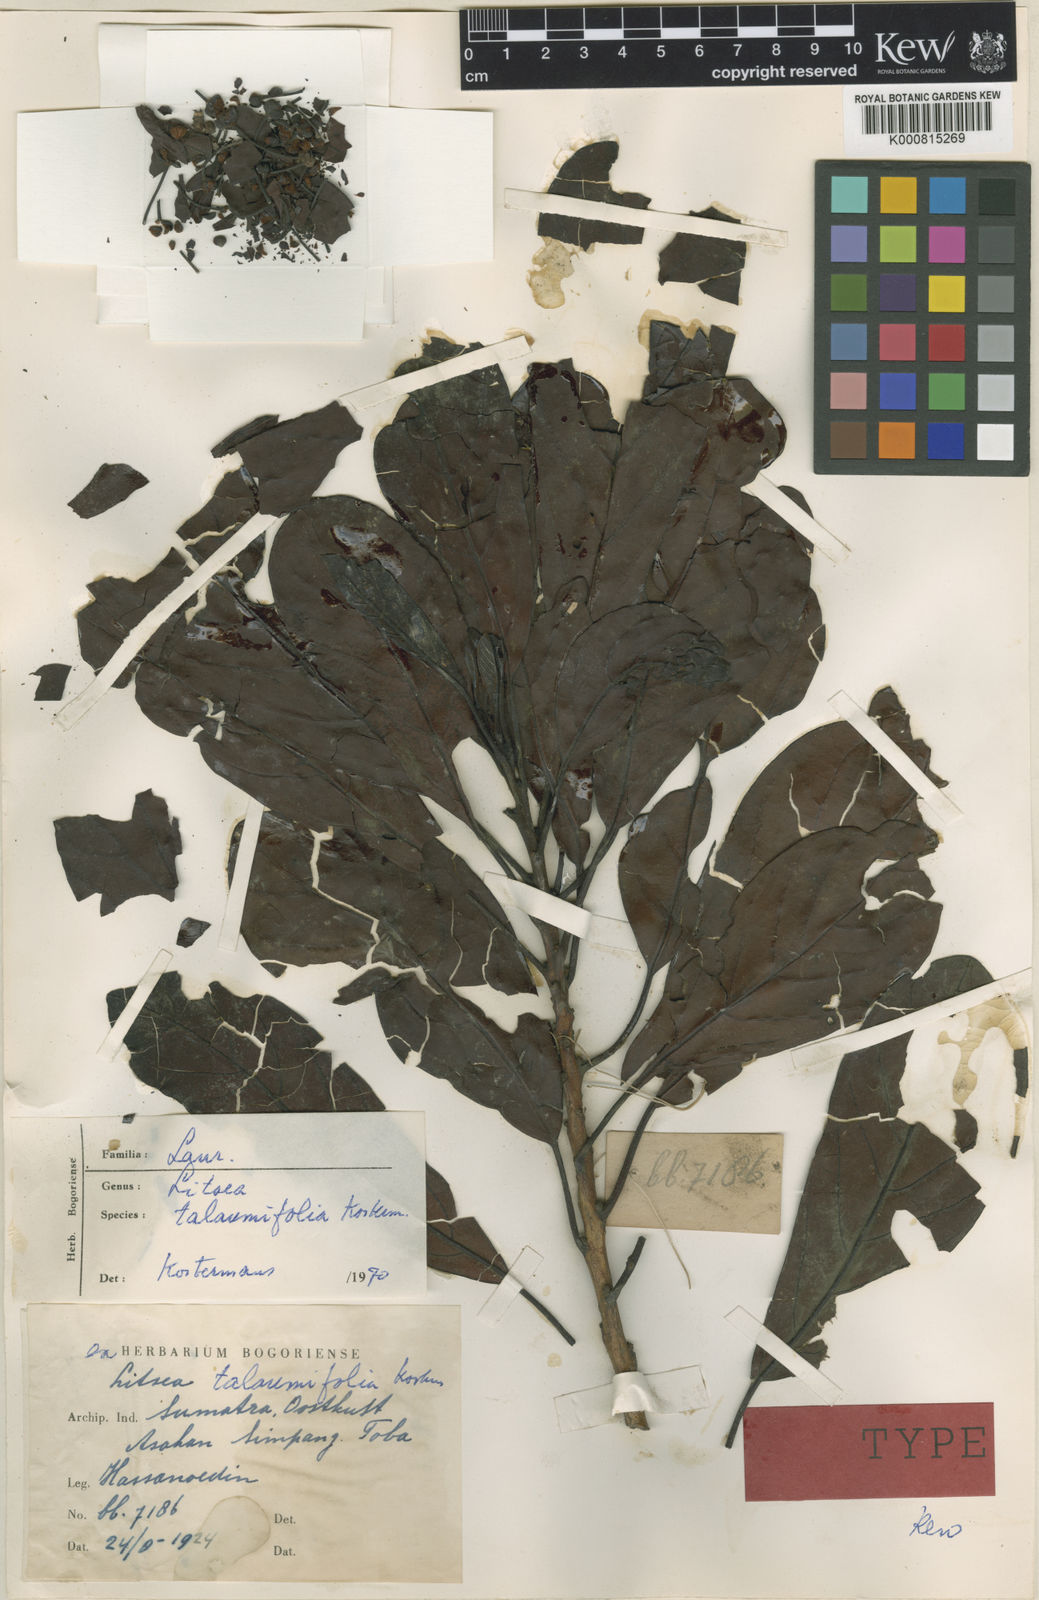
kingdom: Plantae
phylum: Tracheophyta
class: Magnoliopsida
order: Laurales
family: Lauraceae
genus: Litsea
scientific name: Litsea talaumifolia
